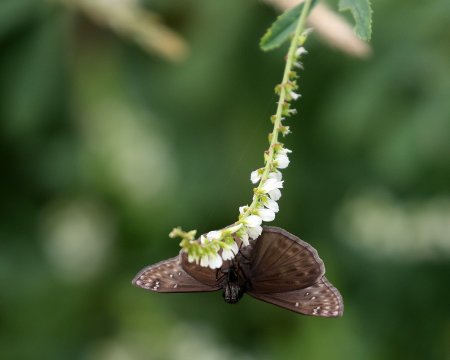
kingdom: Animalia
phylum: Arthropoda
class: Insecta
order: Lepidoptera
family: Hesperiidae
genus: Gesta
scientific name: Gesta
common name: Horace's Duskywing
